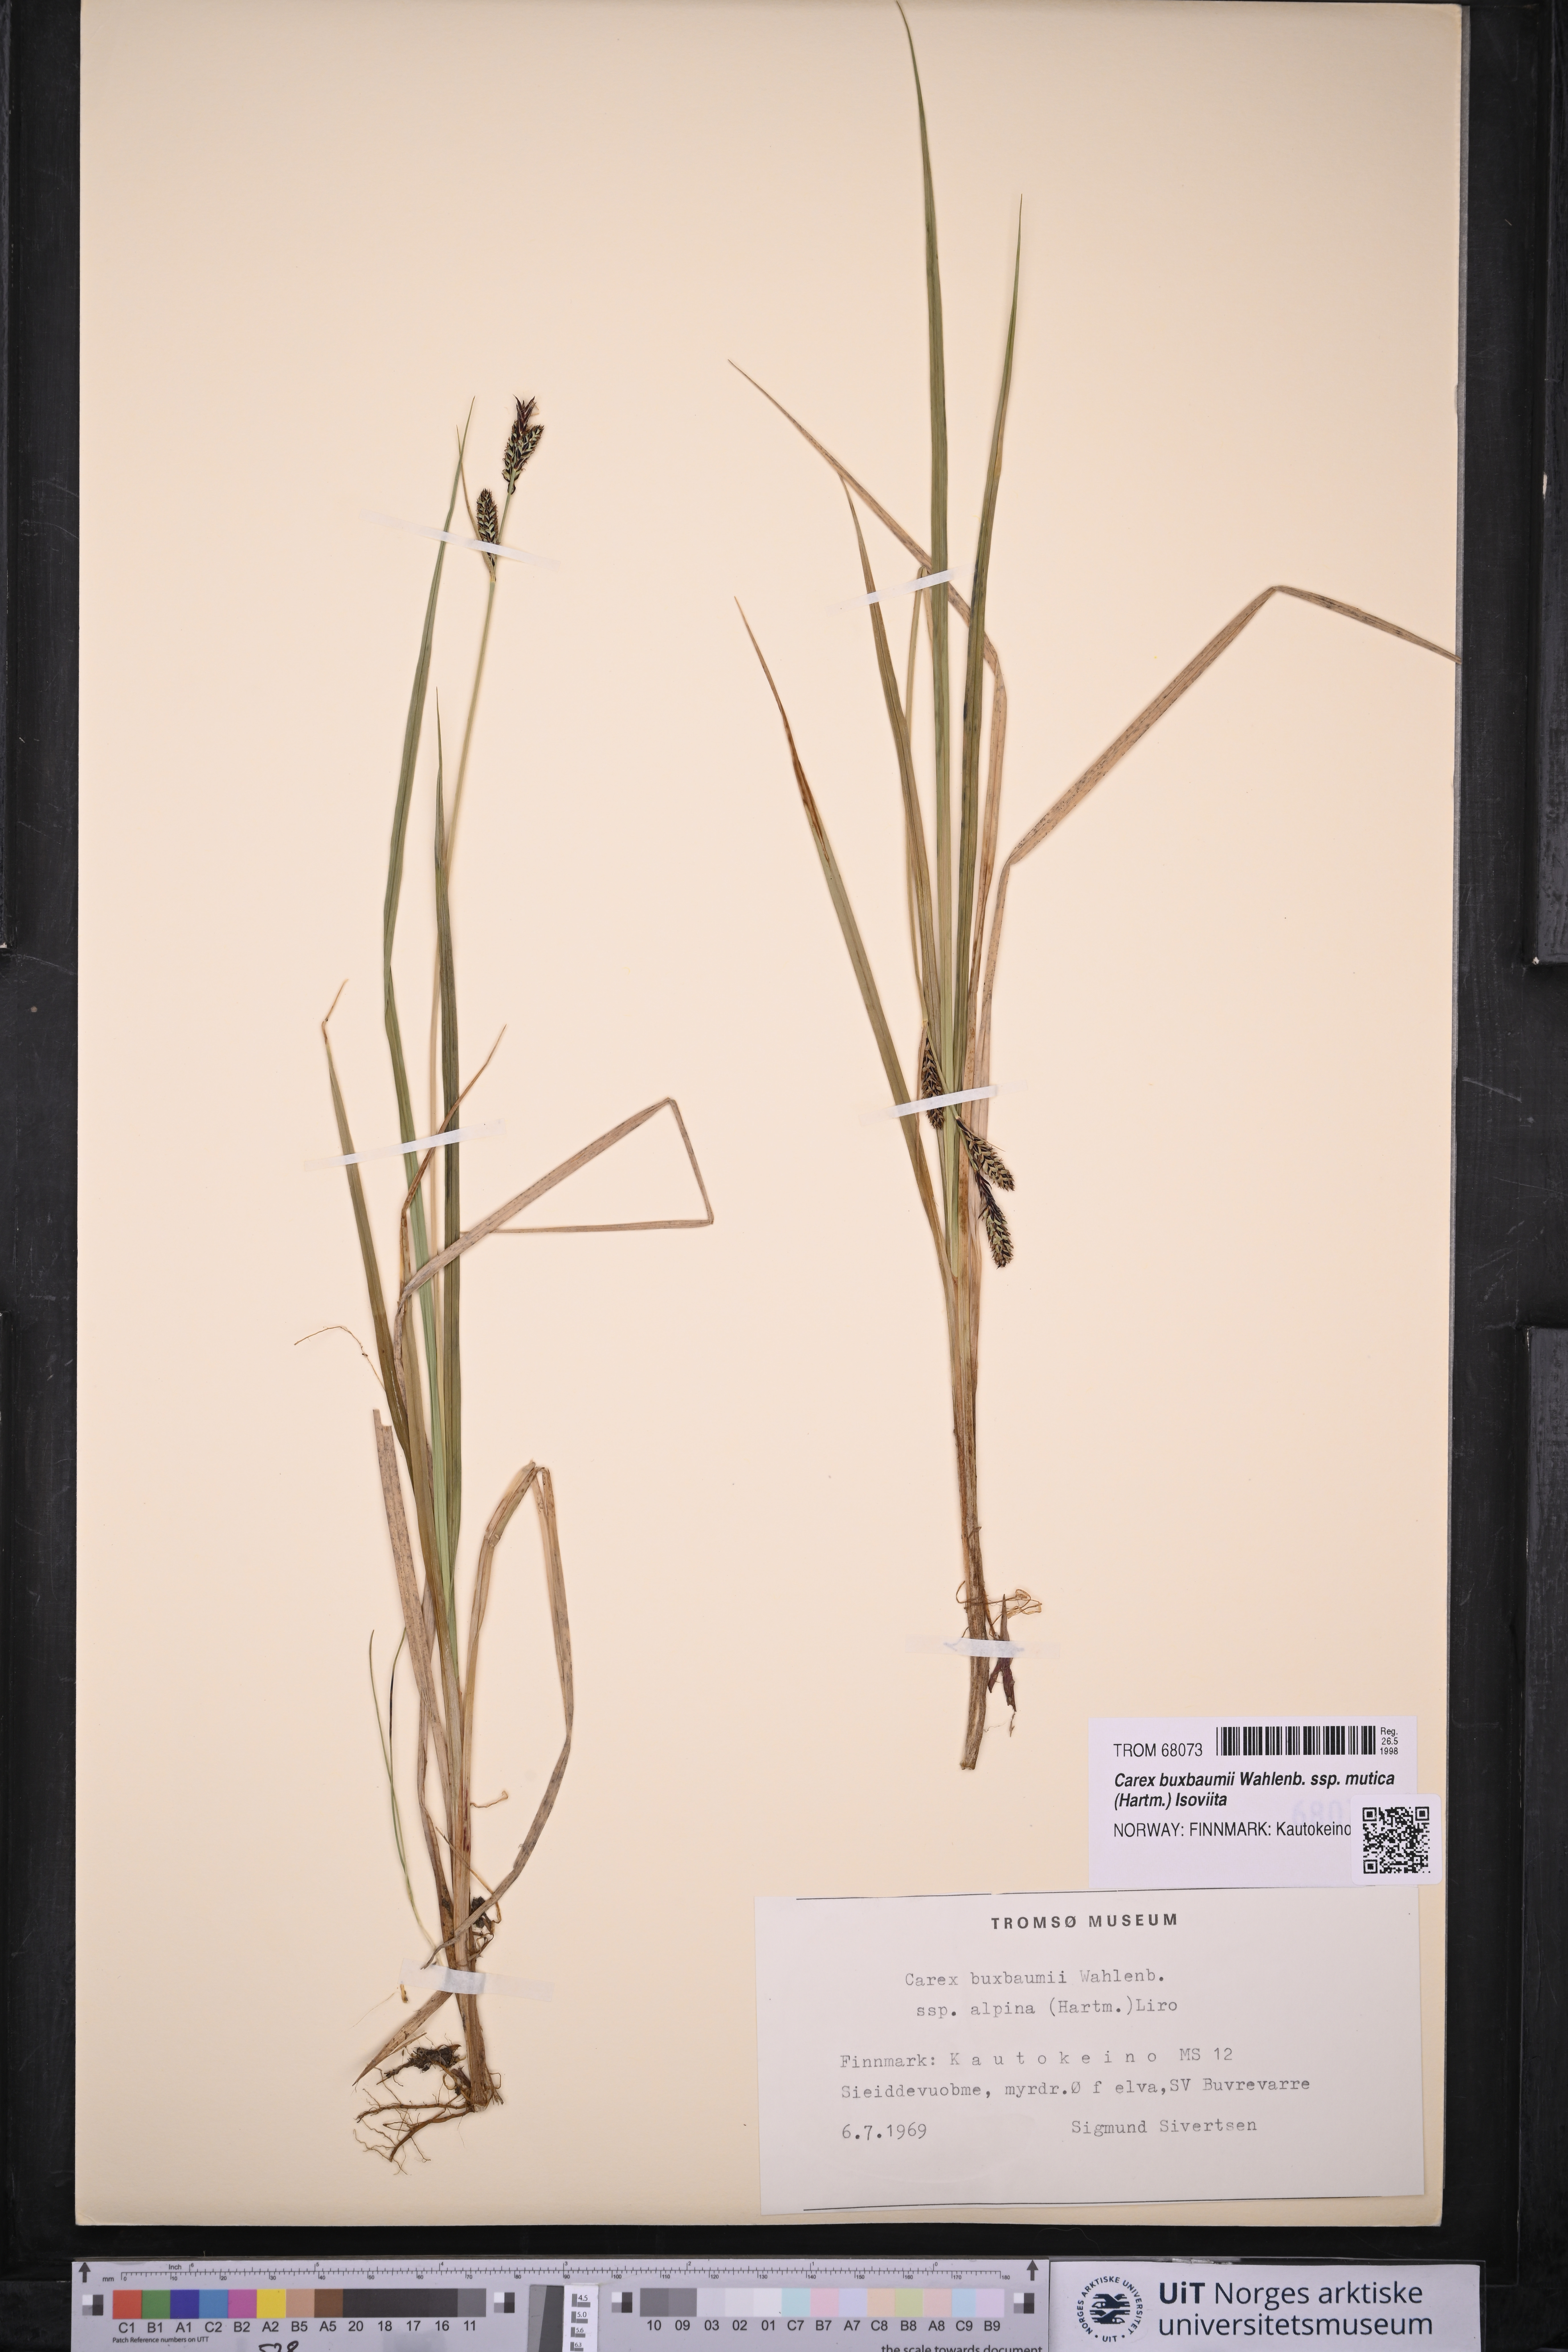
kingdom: Plantae
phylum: Tracheophyta
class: Liliopsida
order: Poales
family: Cyperaceae
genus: Carex
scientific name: Carex adelostoma
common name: Circumpolar sedge
